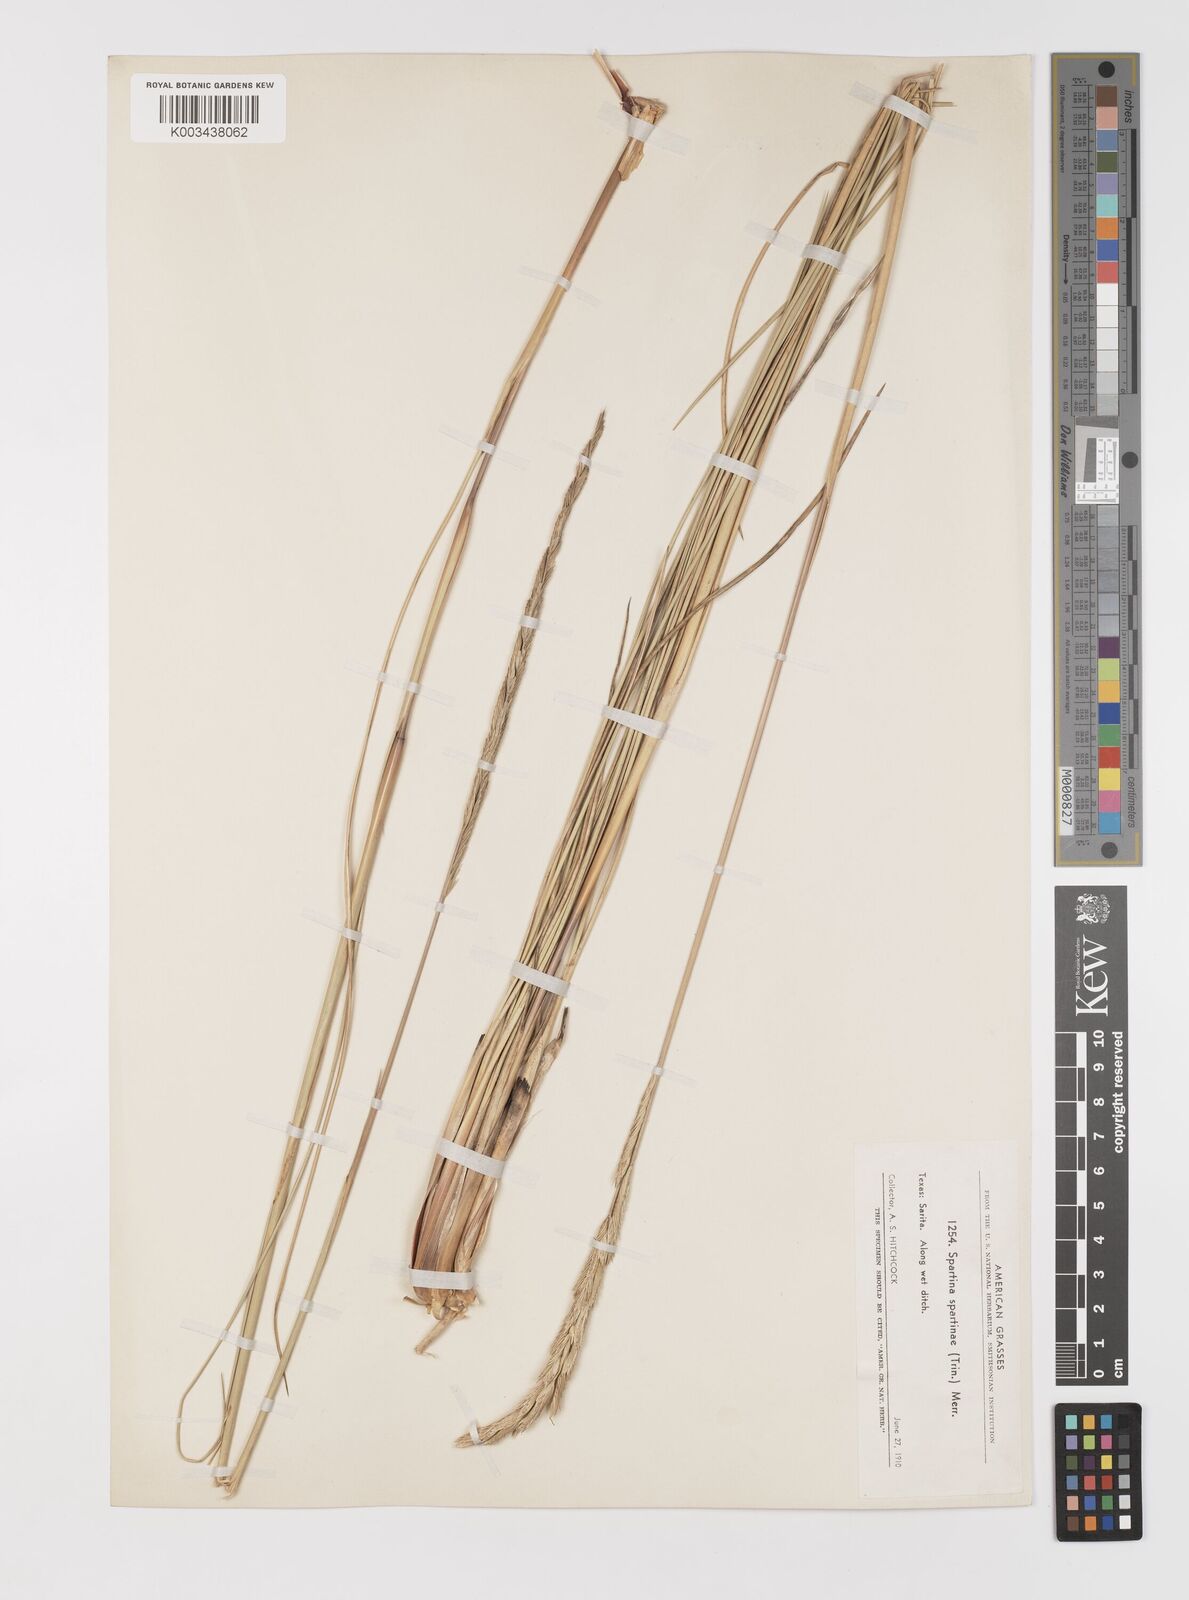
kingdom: Plantae
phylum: Tracheophyta
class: Liliopsida
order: Poales
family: Poaceae
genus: Sporobolus
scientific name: Sporobolus spartinae
